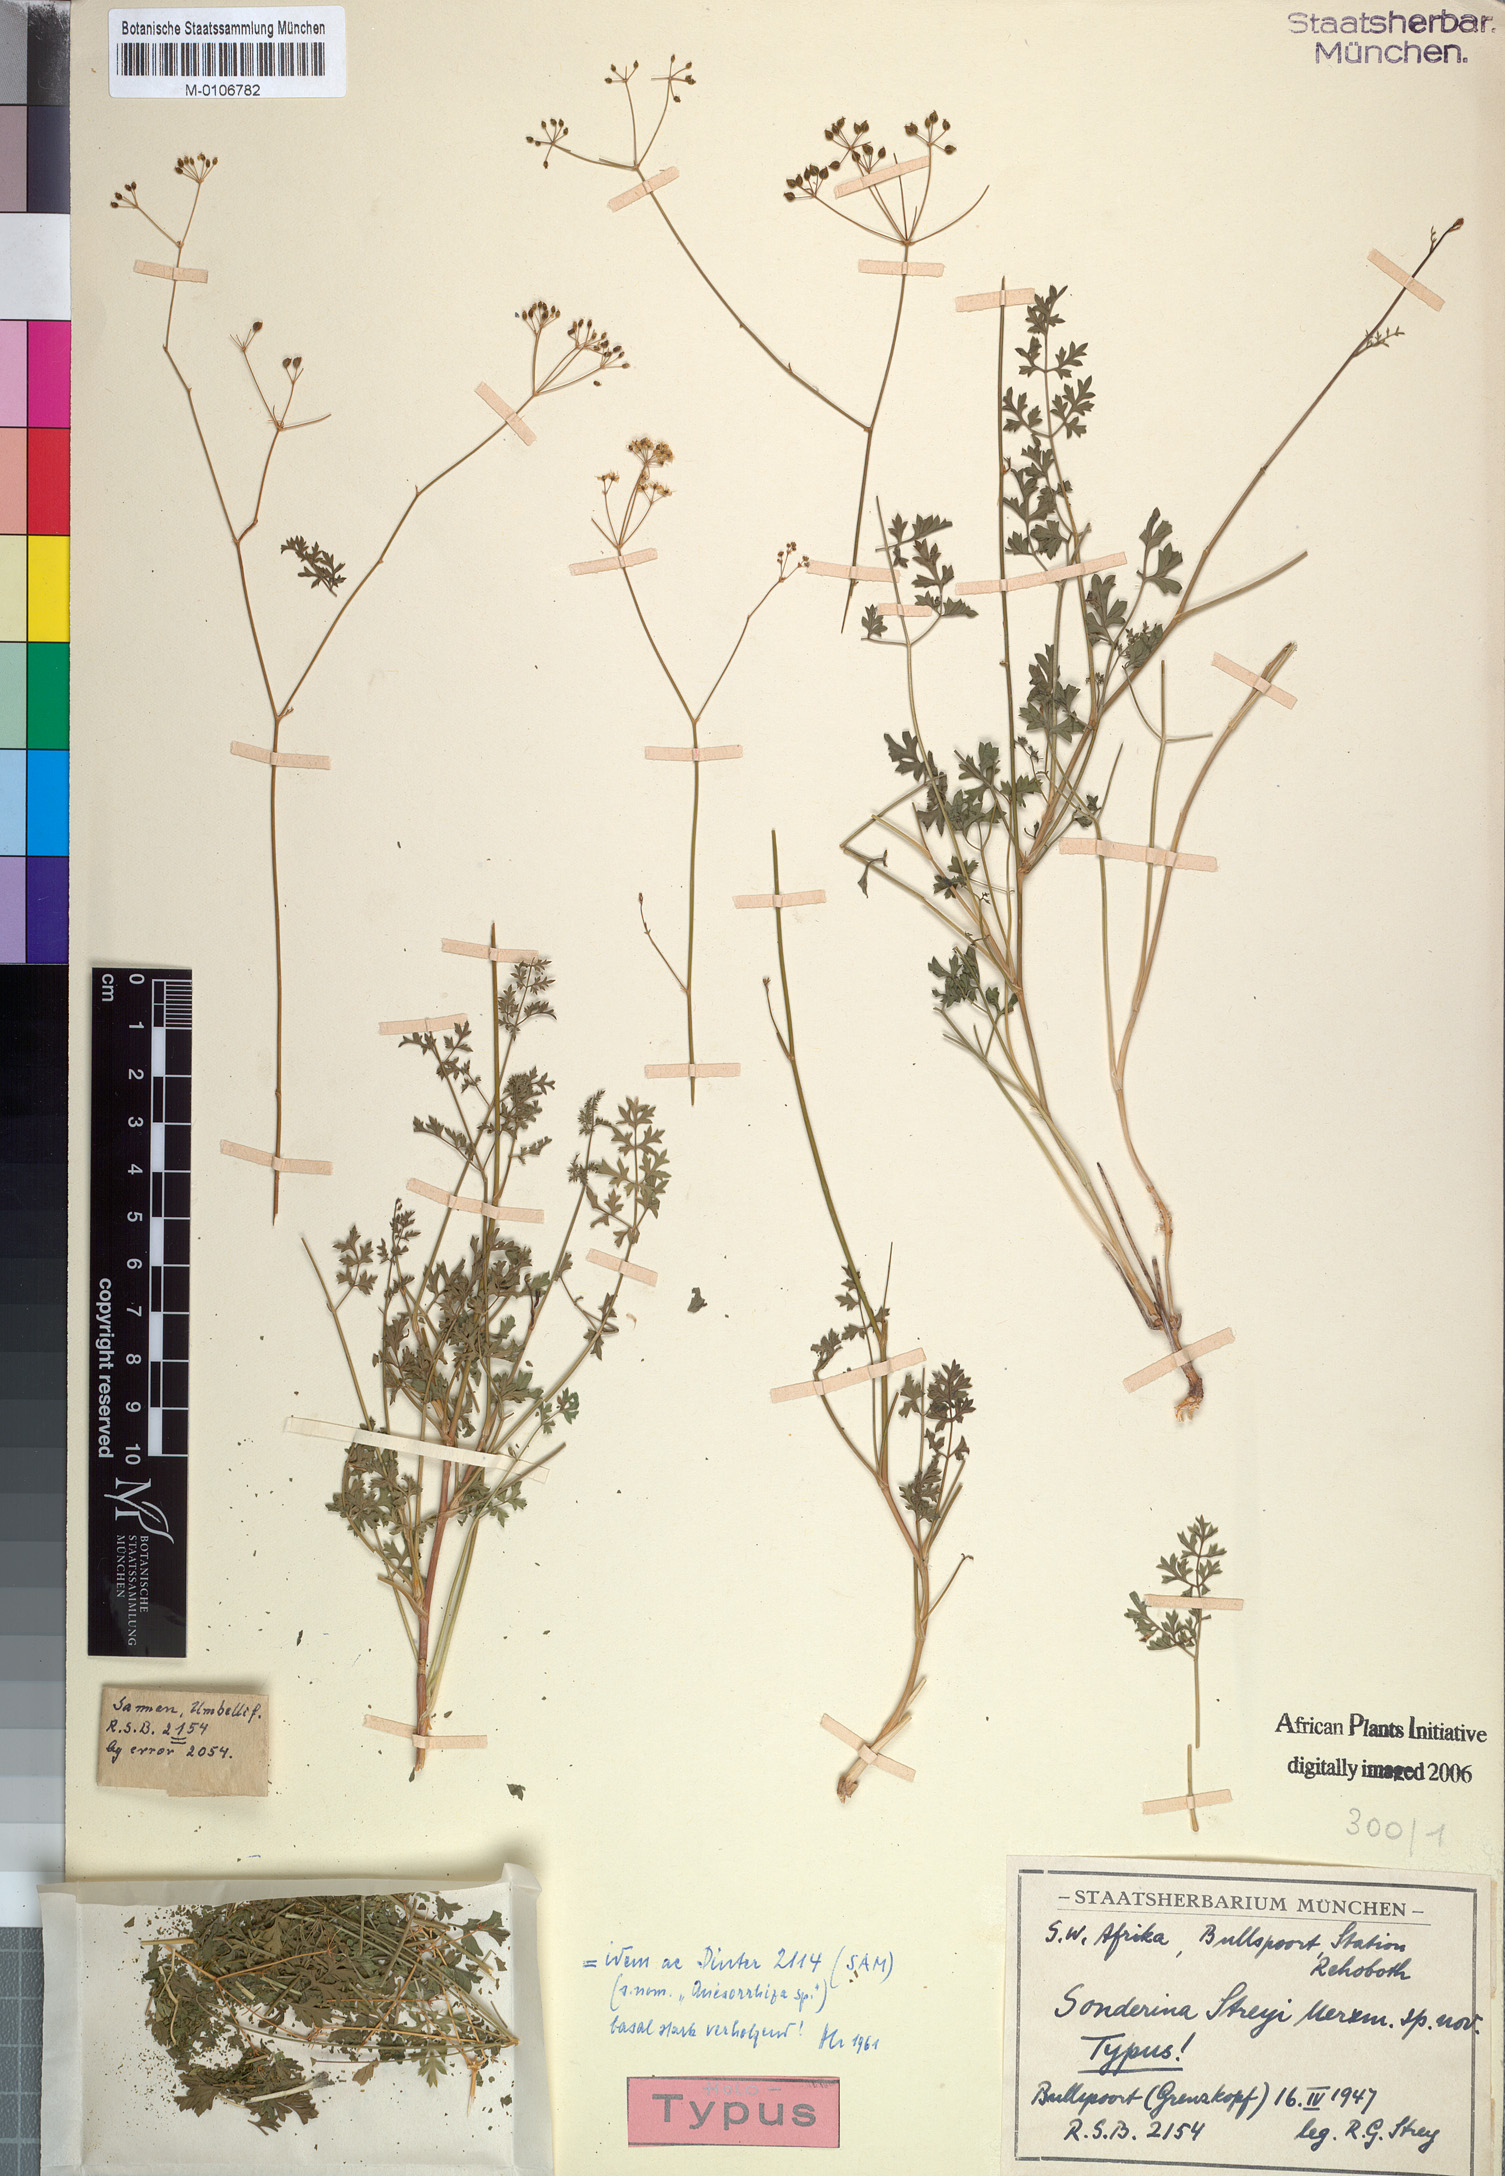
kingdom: Plantae
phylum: Tracheophyta
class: Magnoliopsida
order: Apiales
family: Apiaceae
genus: Anginon
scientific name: Anginon streyi
